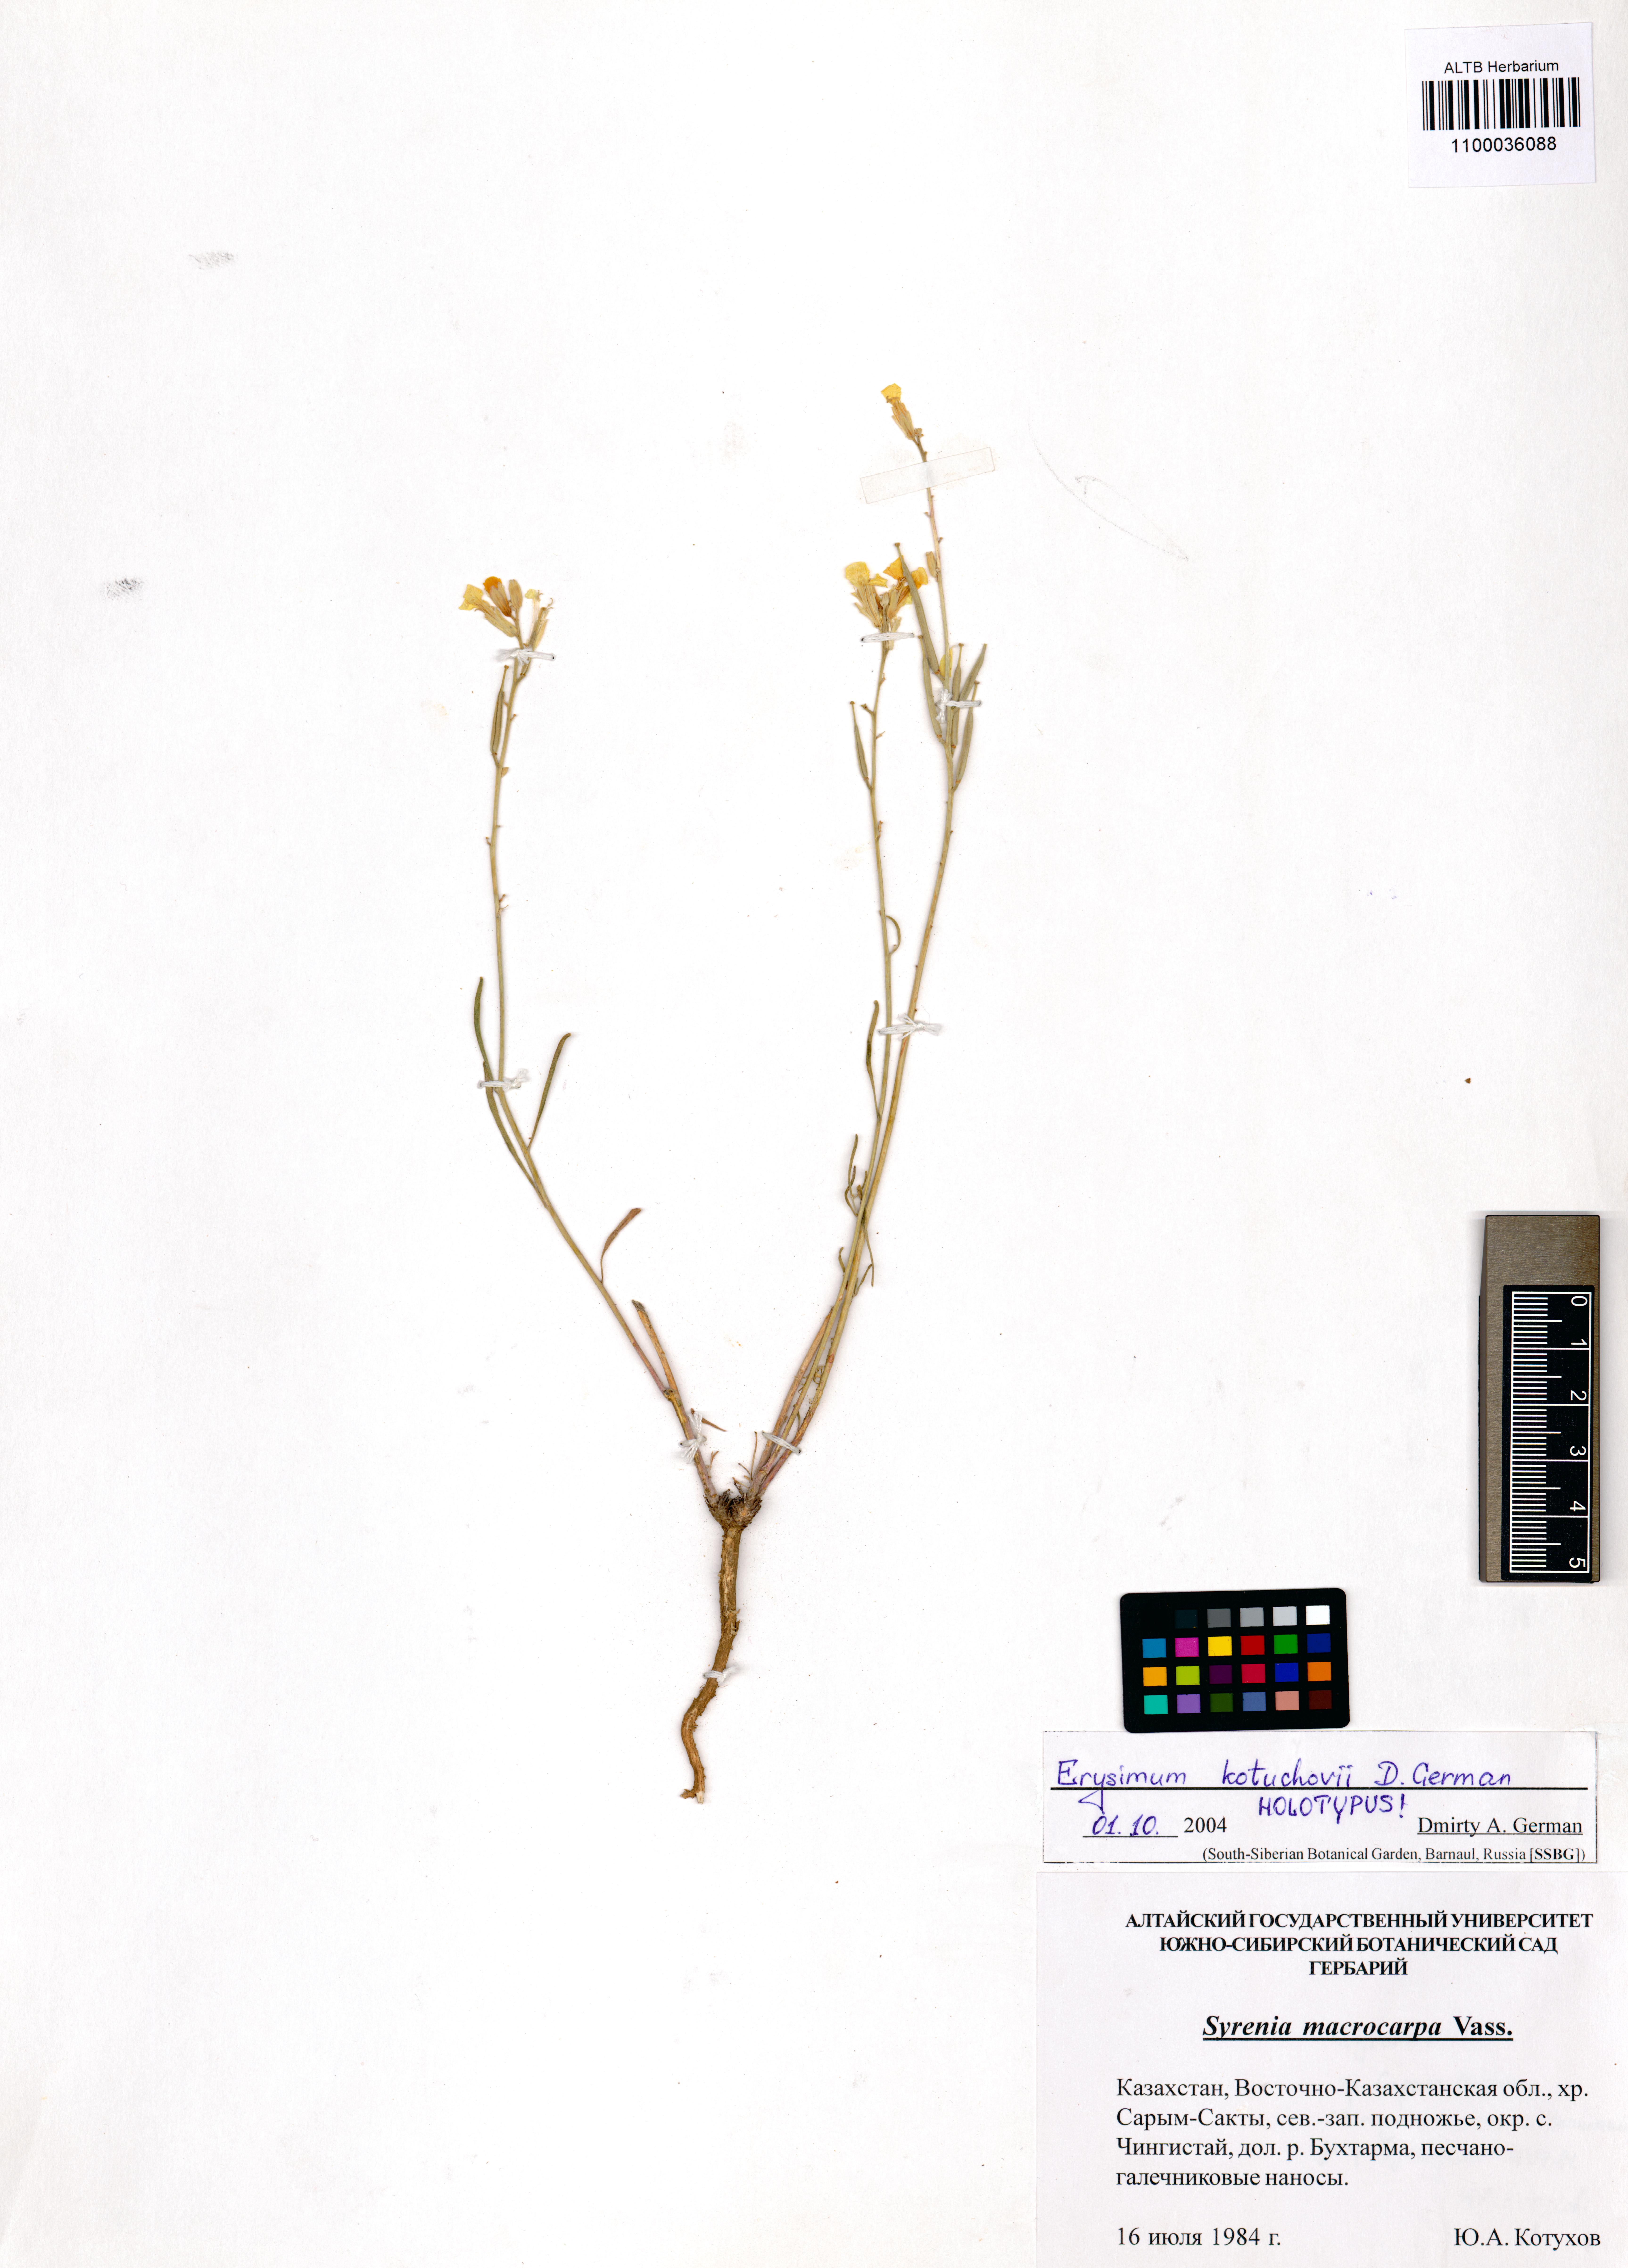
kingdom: Plantae
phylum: Tracheophyta
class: Magnoliopsida
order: Brassicales
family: Brassicaceae
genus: Erysimum
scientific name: Erysimum kotuchovii
